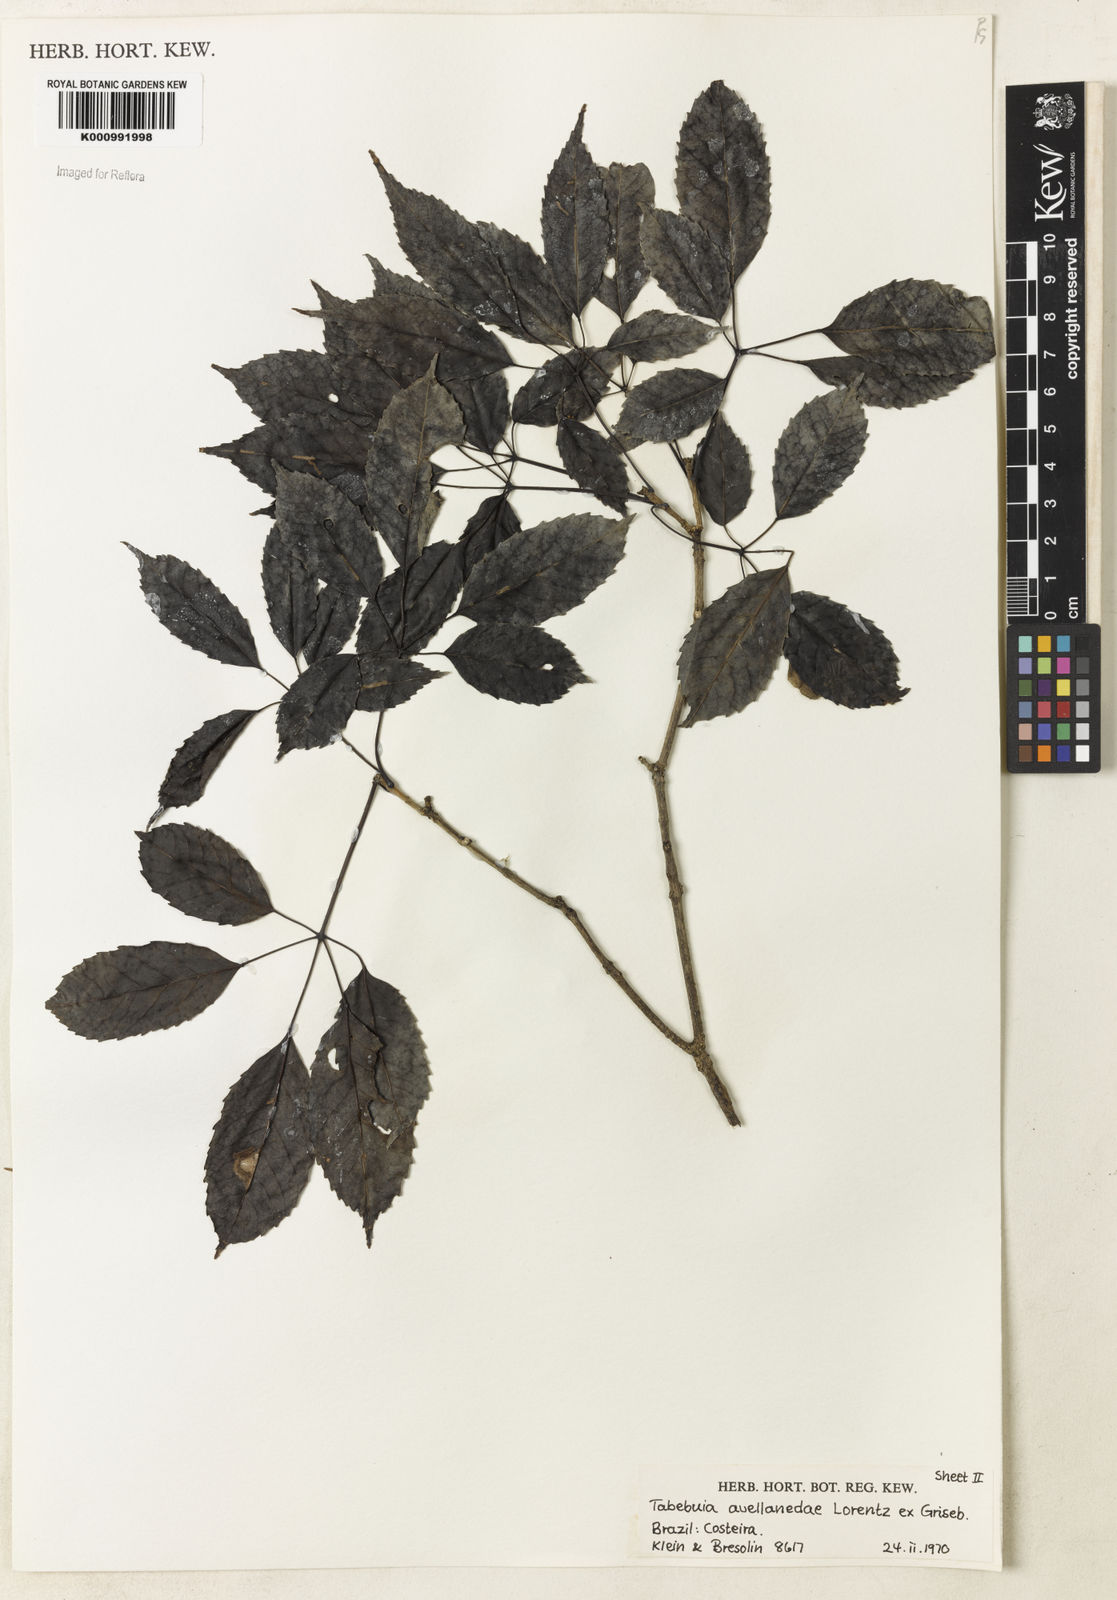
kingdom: Plantae
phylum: Tracheophyta
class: Magnoliopsida
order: Lamiales
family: Bignoniaceae
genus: Handroanthus
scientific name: Handroanthus heptaphyllus
